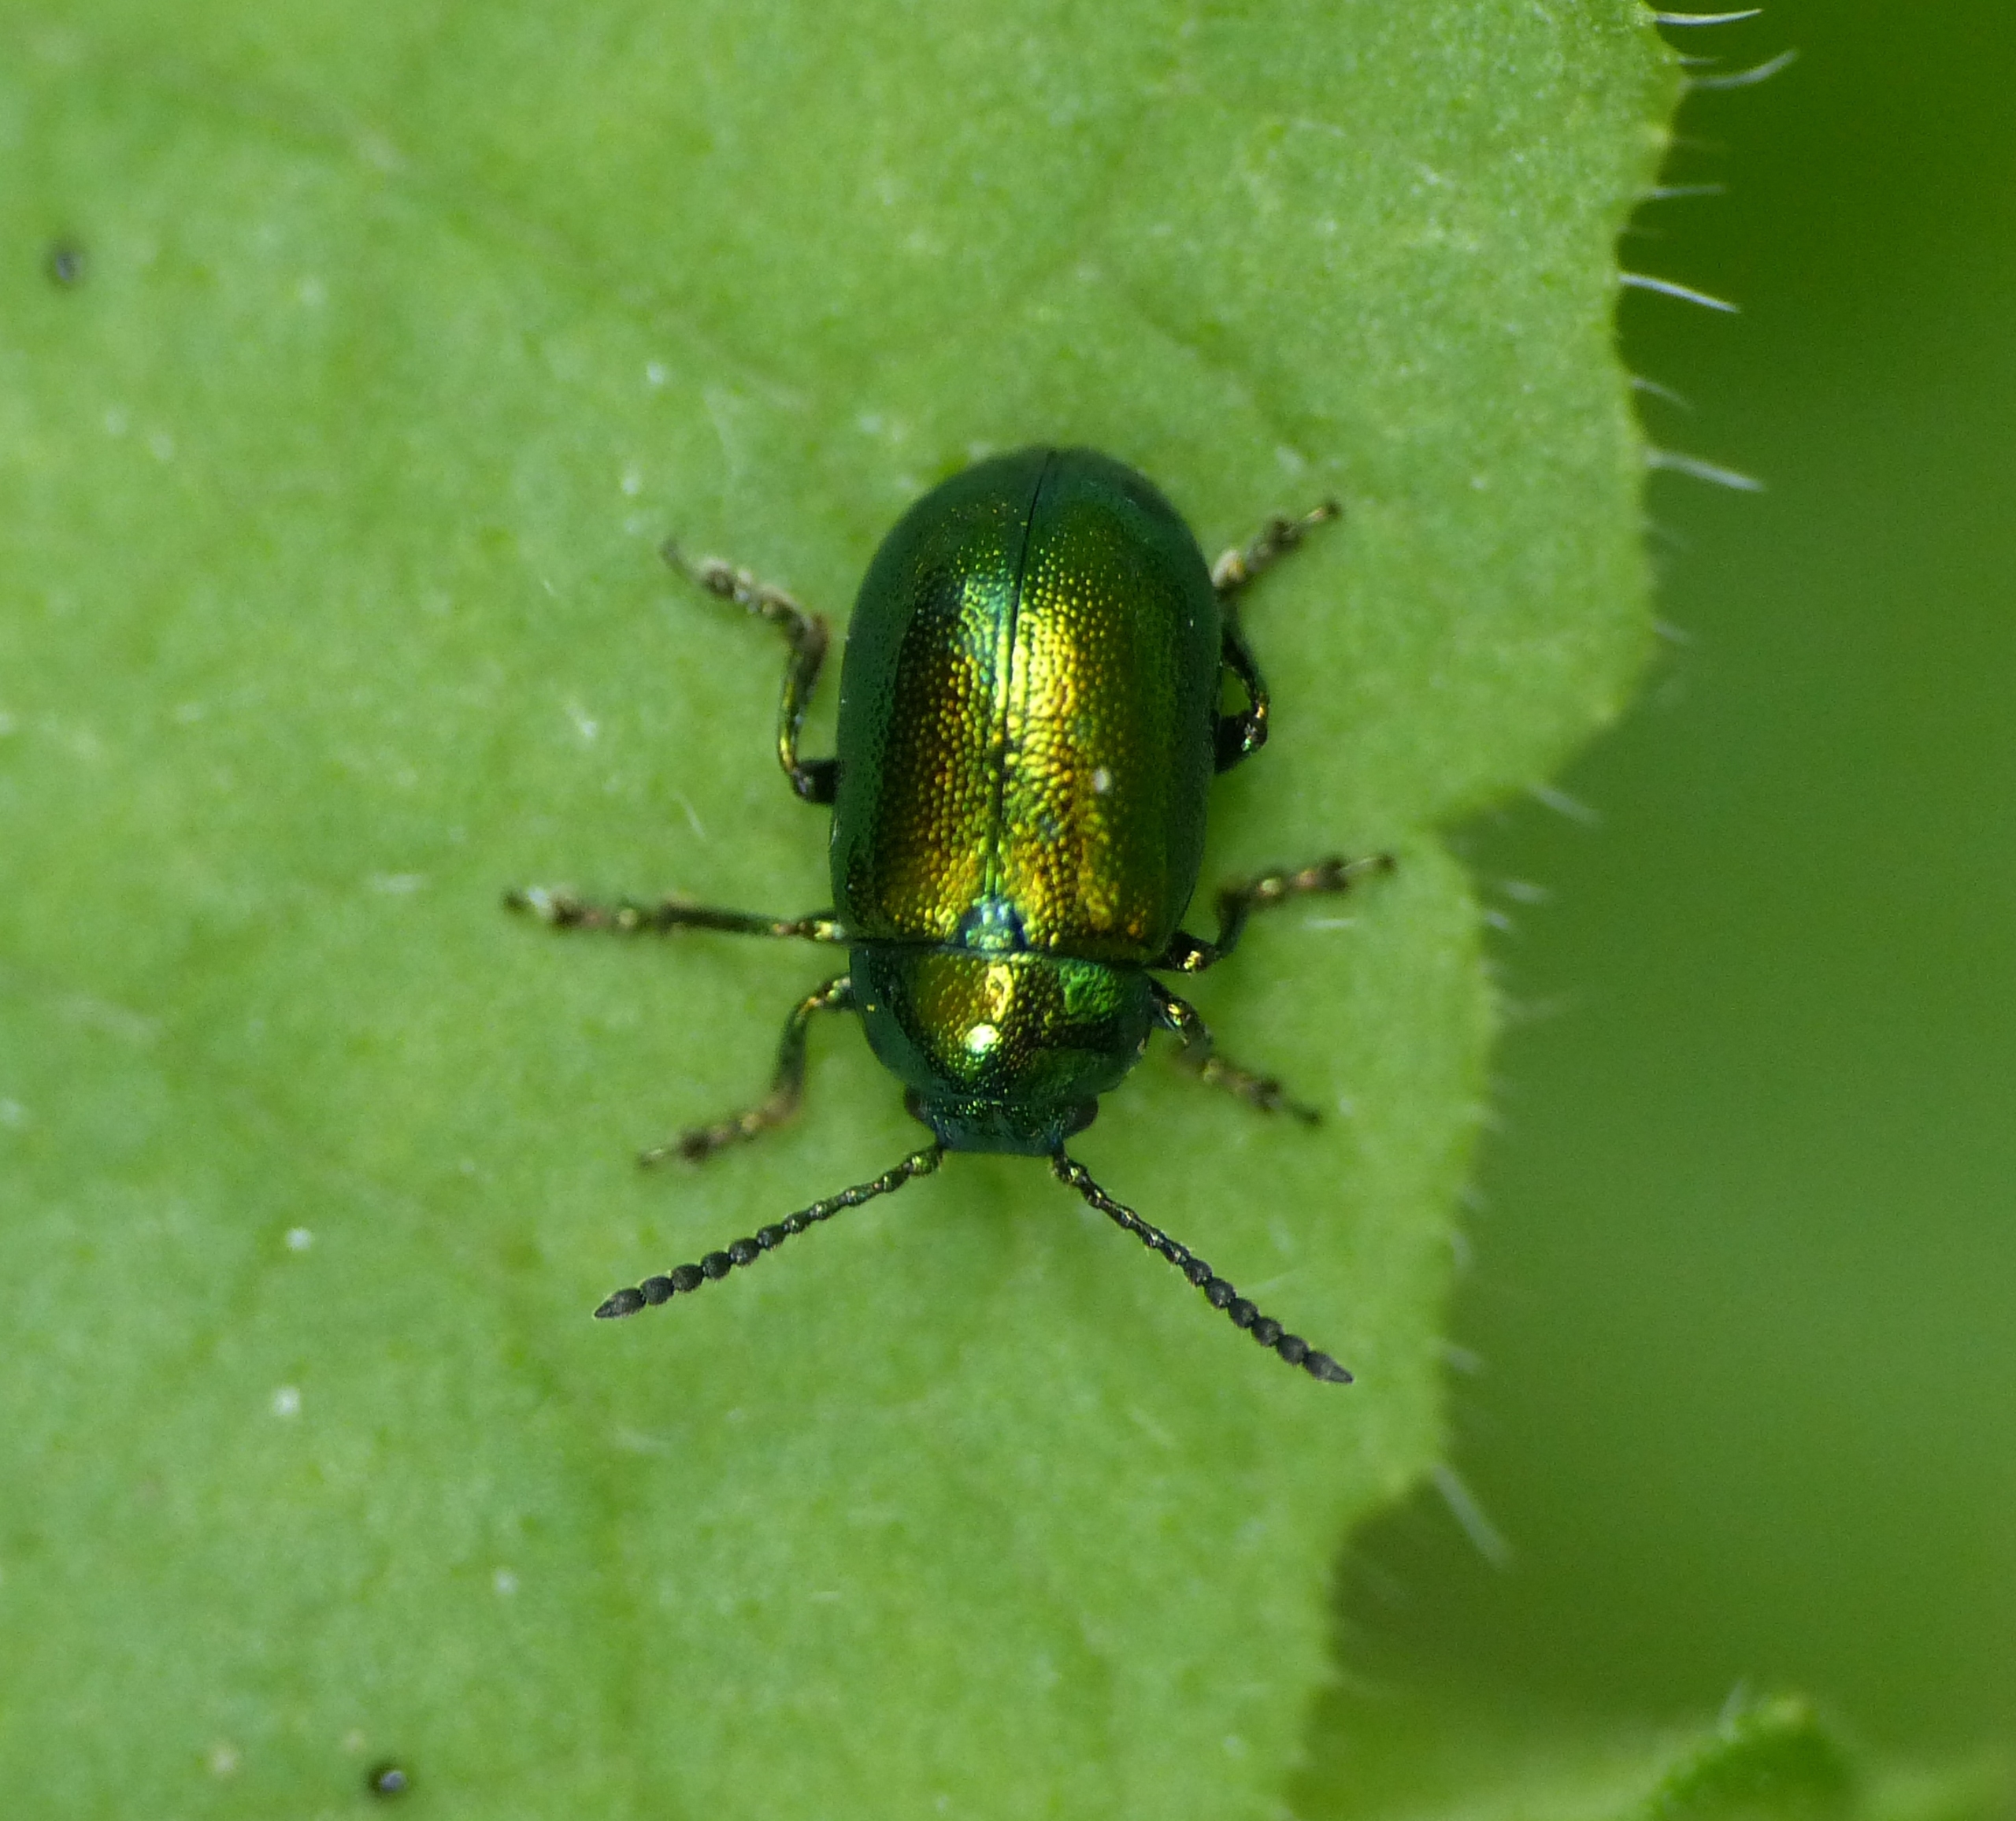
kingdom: Animalia
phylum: Arthropoda
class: Insecta
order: Coleoptera
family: Chrysomelidae
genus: Gastrophysa
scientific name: Gastrophysa viridula
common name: Skræppebladbille
